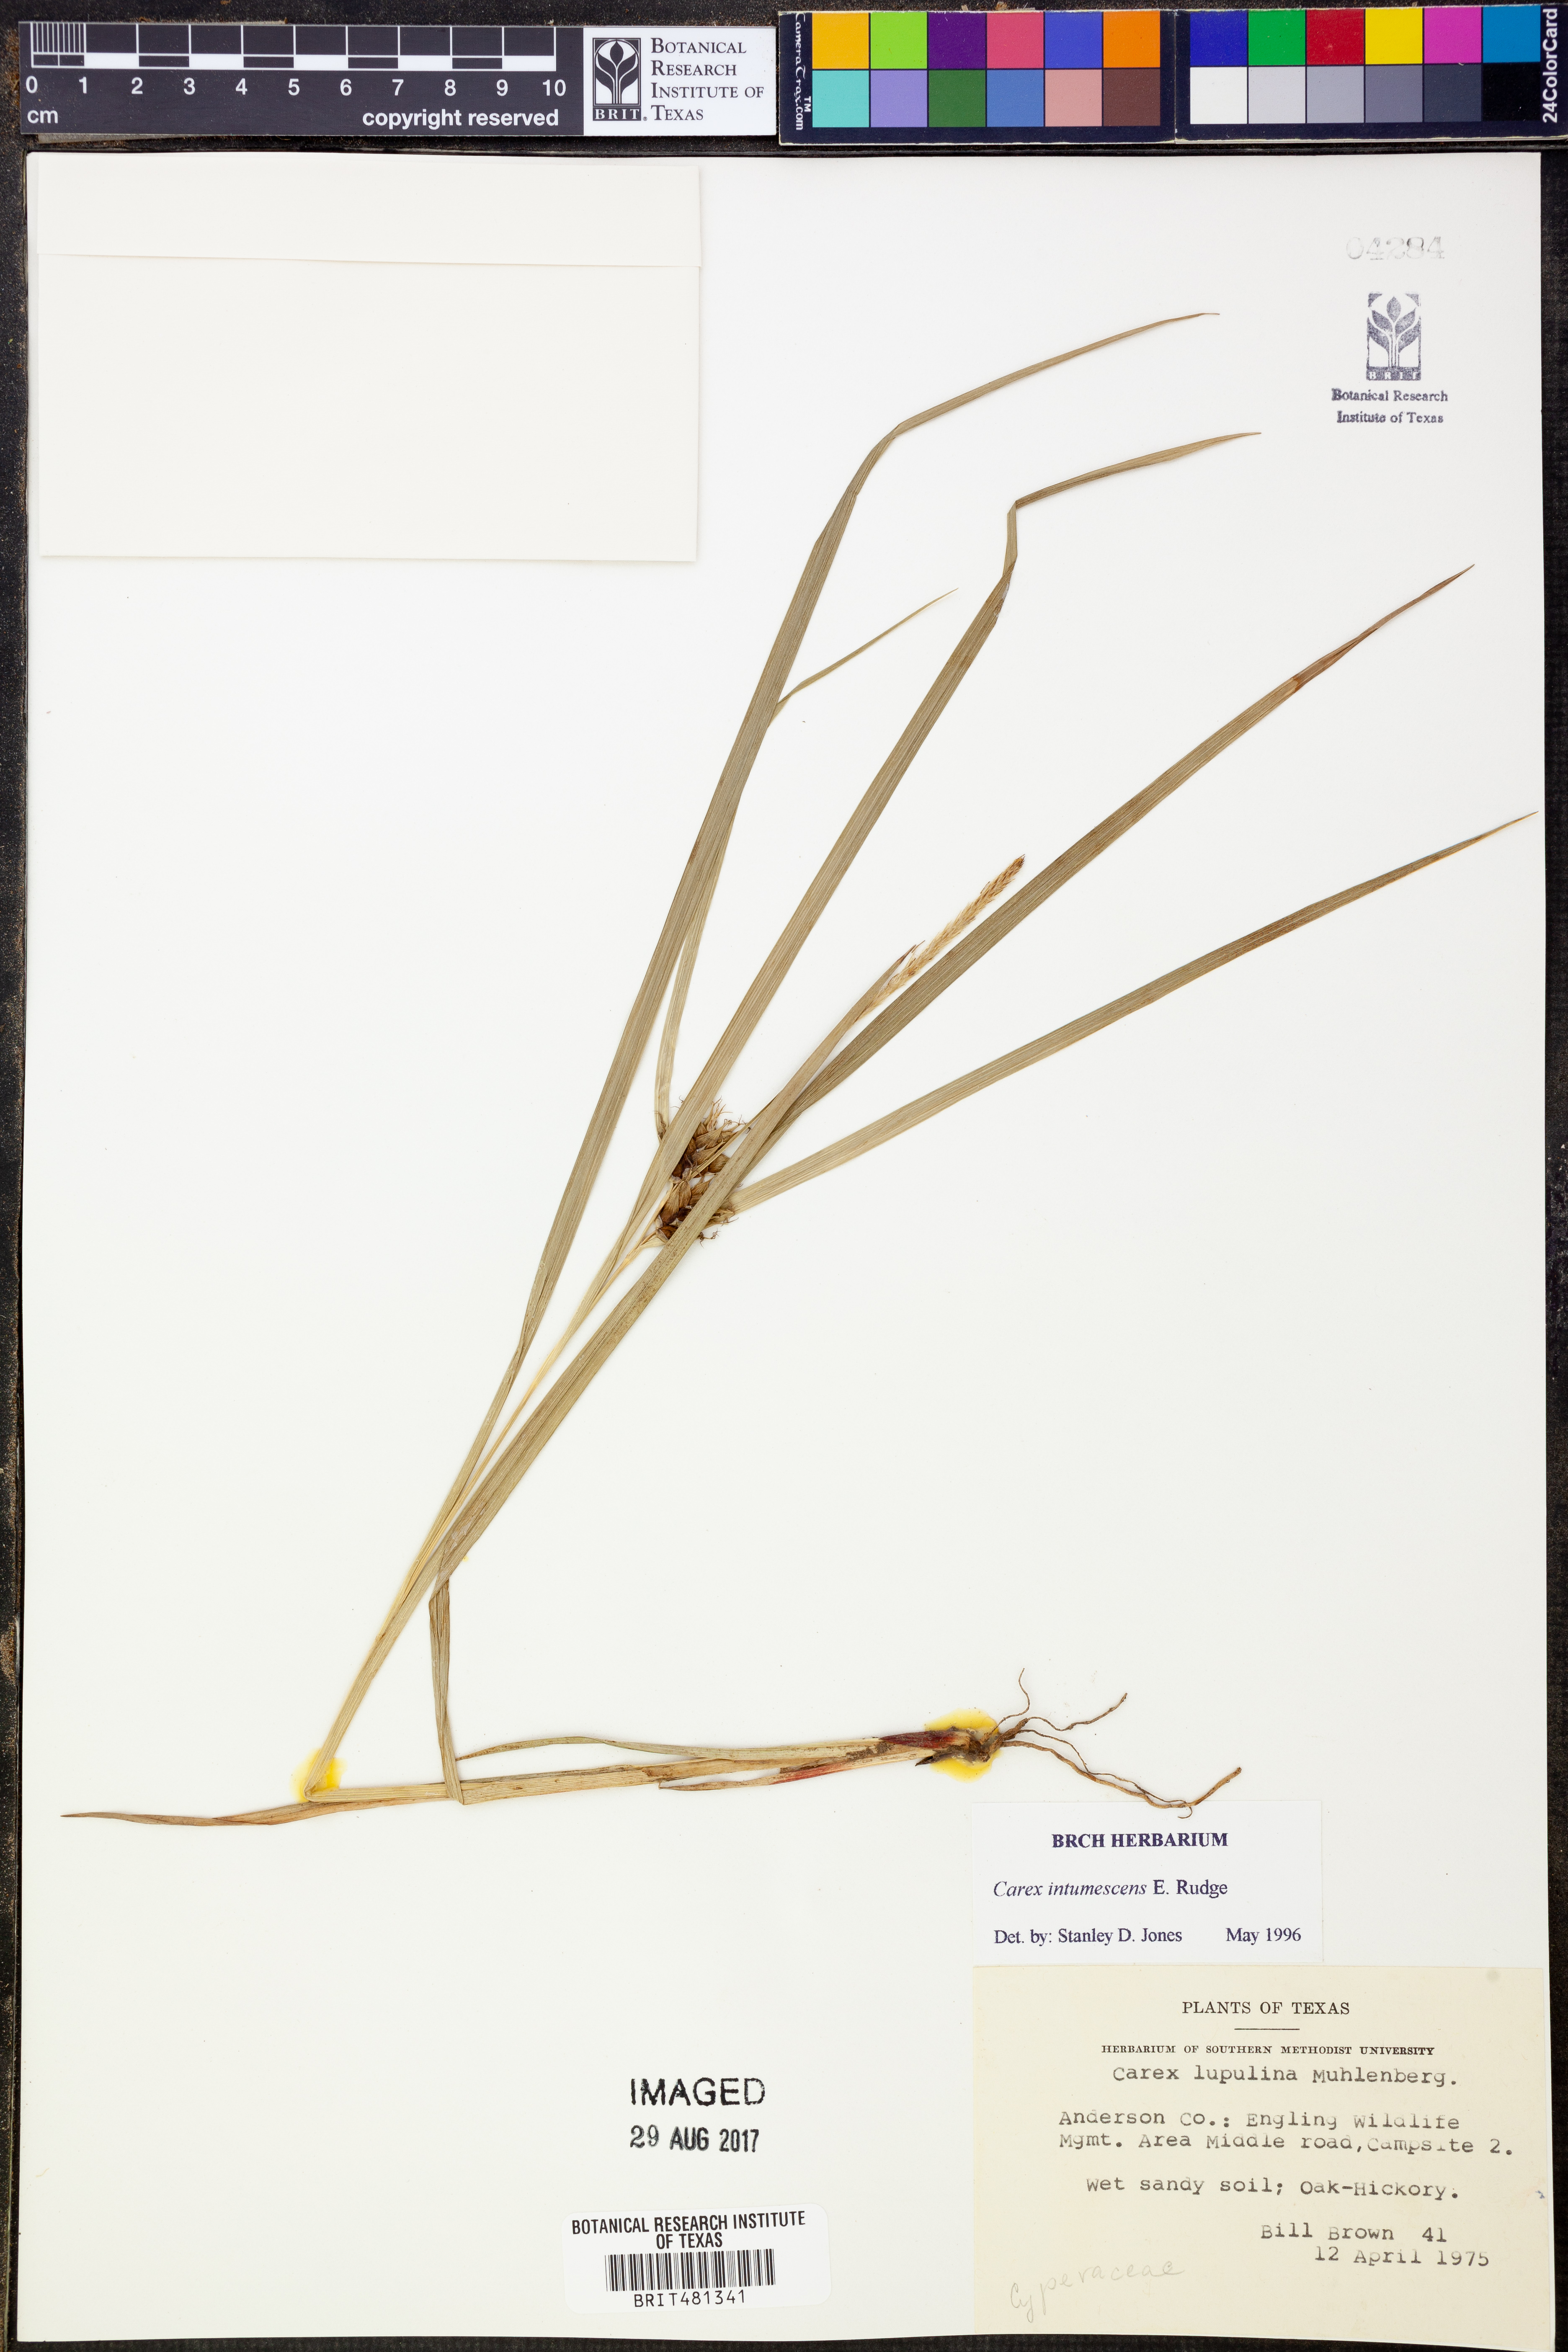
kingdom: Plantae
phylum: Tracheophyta
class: Liliopsida
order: Poales
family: Cyperaceae
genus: Carex
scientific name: Carex intumescens
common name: Greater bladder sedge
